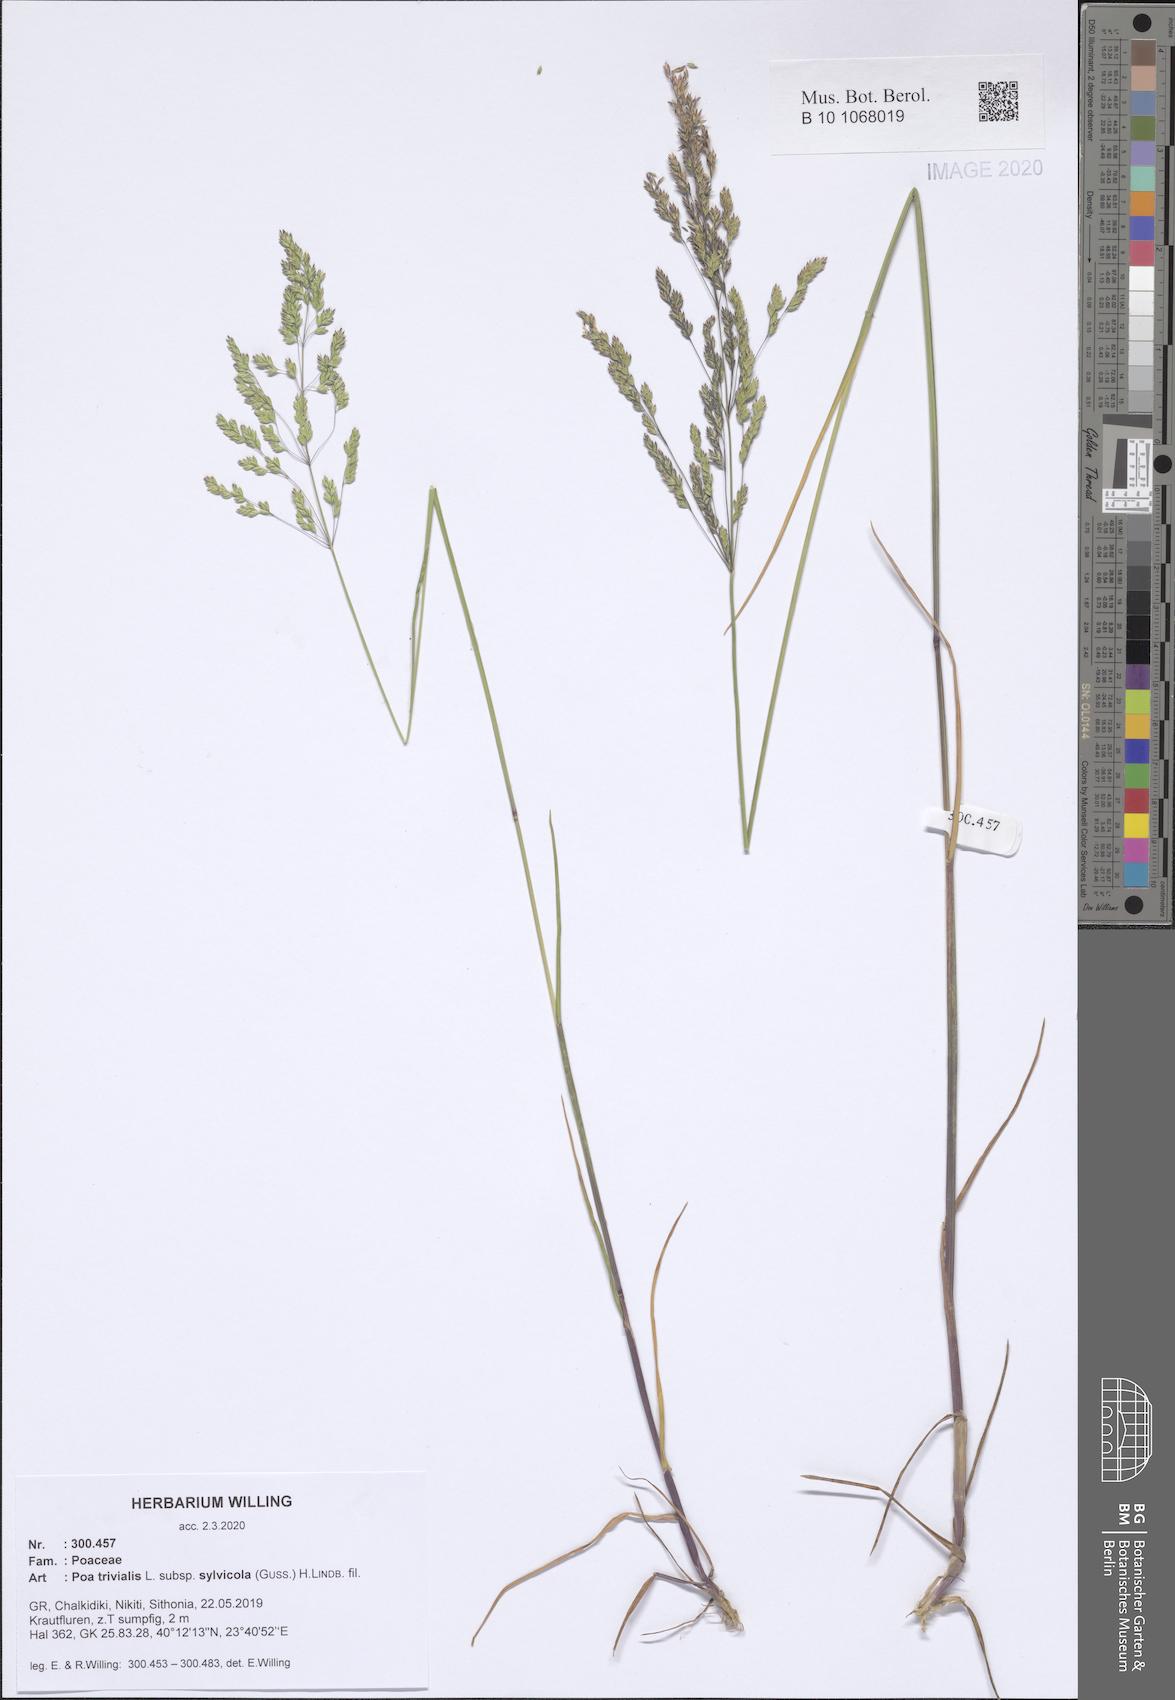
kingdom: Plantae
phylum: Tracheophyta
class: Liliopsida
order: Poales
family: Poaceae
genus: Poa
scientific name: Poa trivialis
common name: Rough bluegrass
